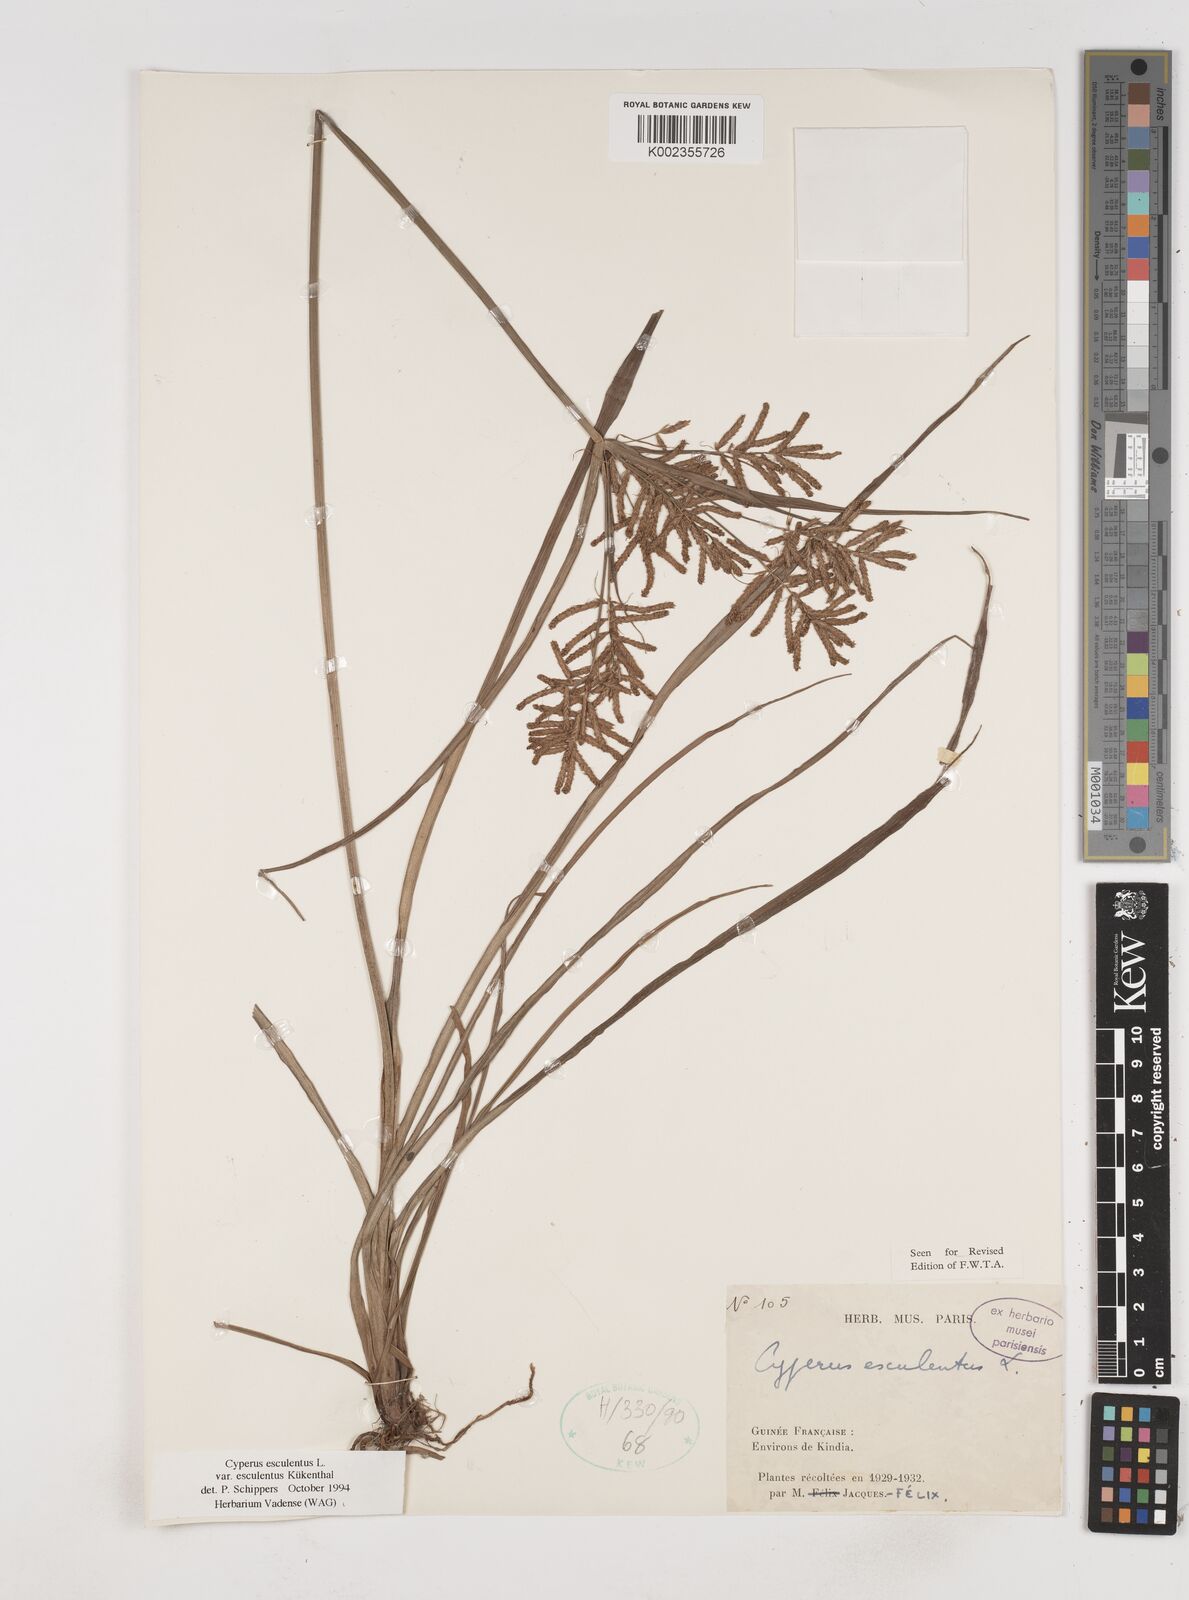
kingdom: Plantae
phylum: Tracheophyta
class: Liliopsida
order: Poales
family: Cyperaceae
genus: Cyperus
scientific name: Cyperus esculentus
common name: Yellow nutsedge
